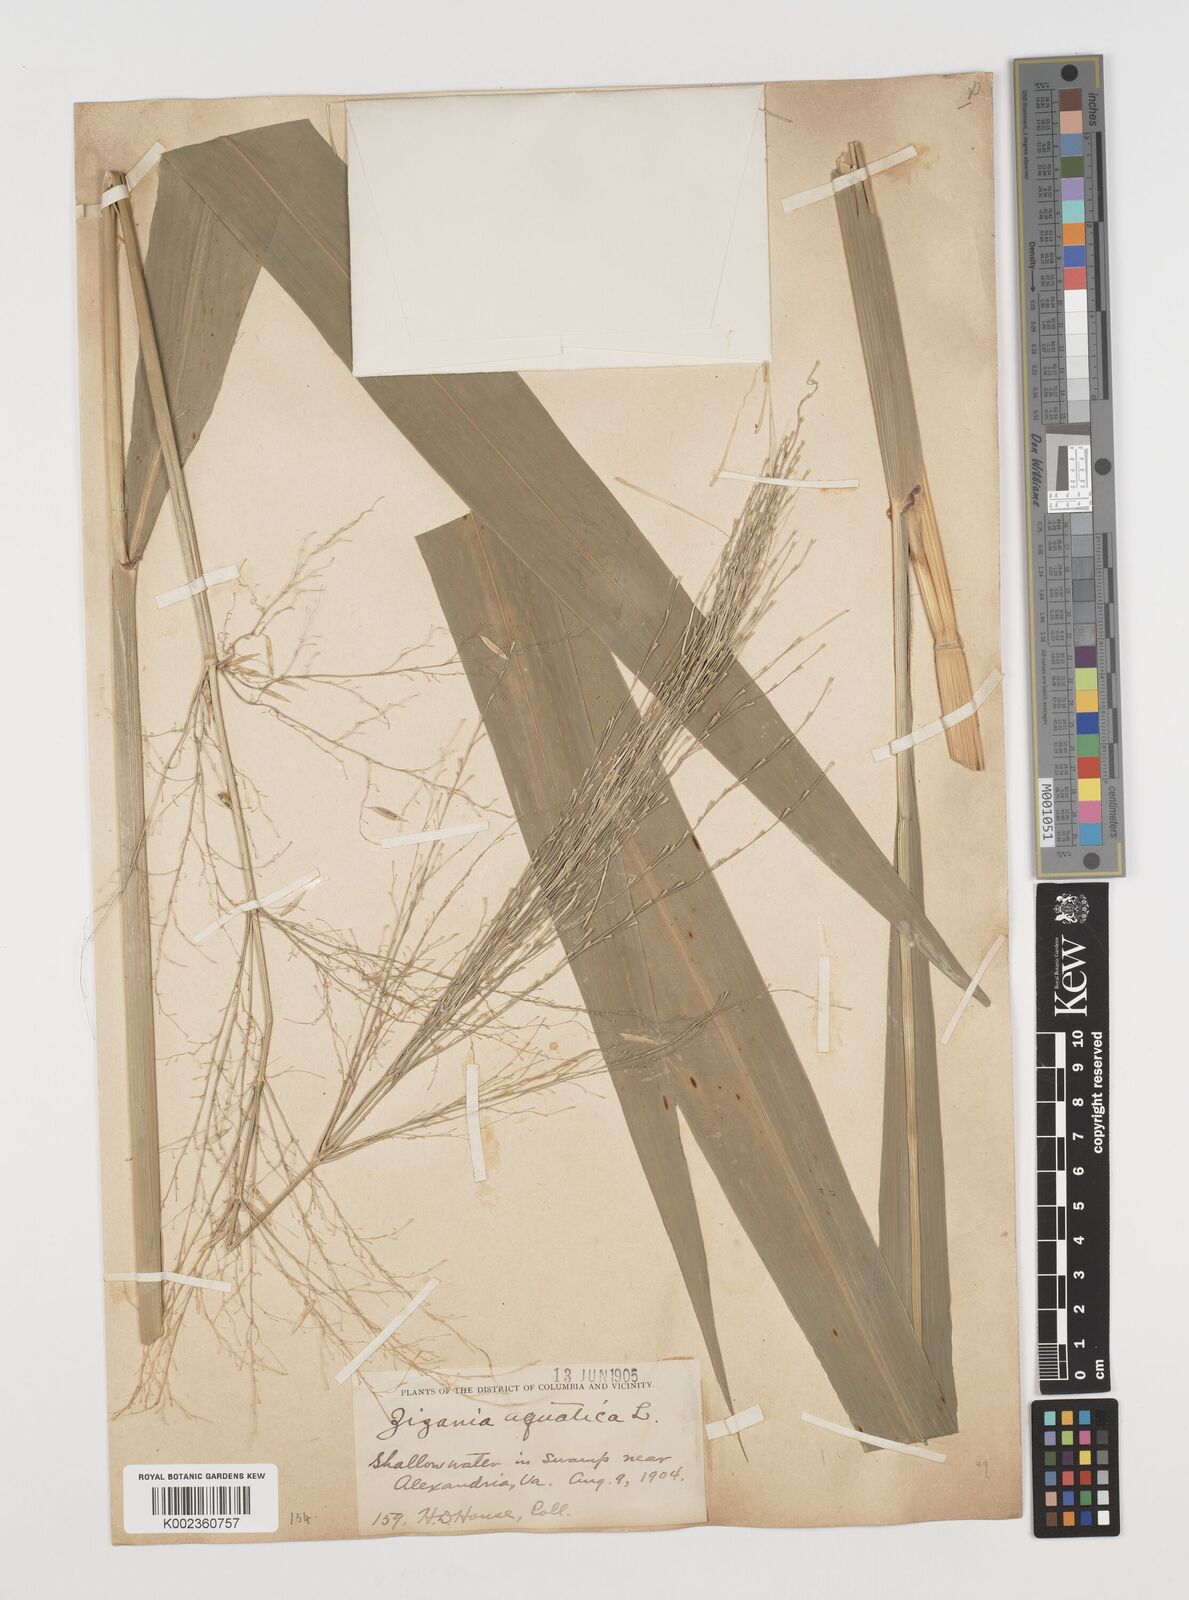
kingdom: Plantae
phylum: Tracheophyta
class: Liliopsida
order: Poales
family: Poaceae
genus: Zizania
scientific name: Zizania aquatica
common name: Annual wildrice
